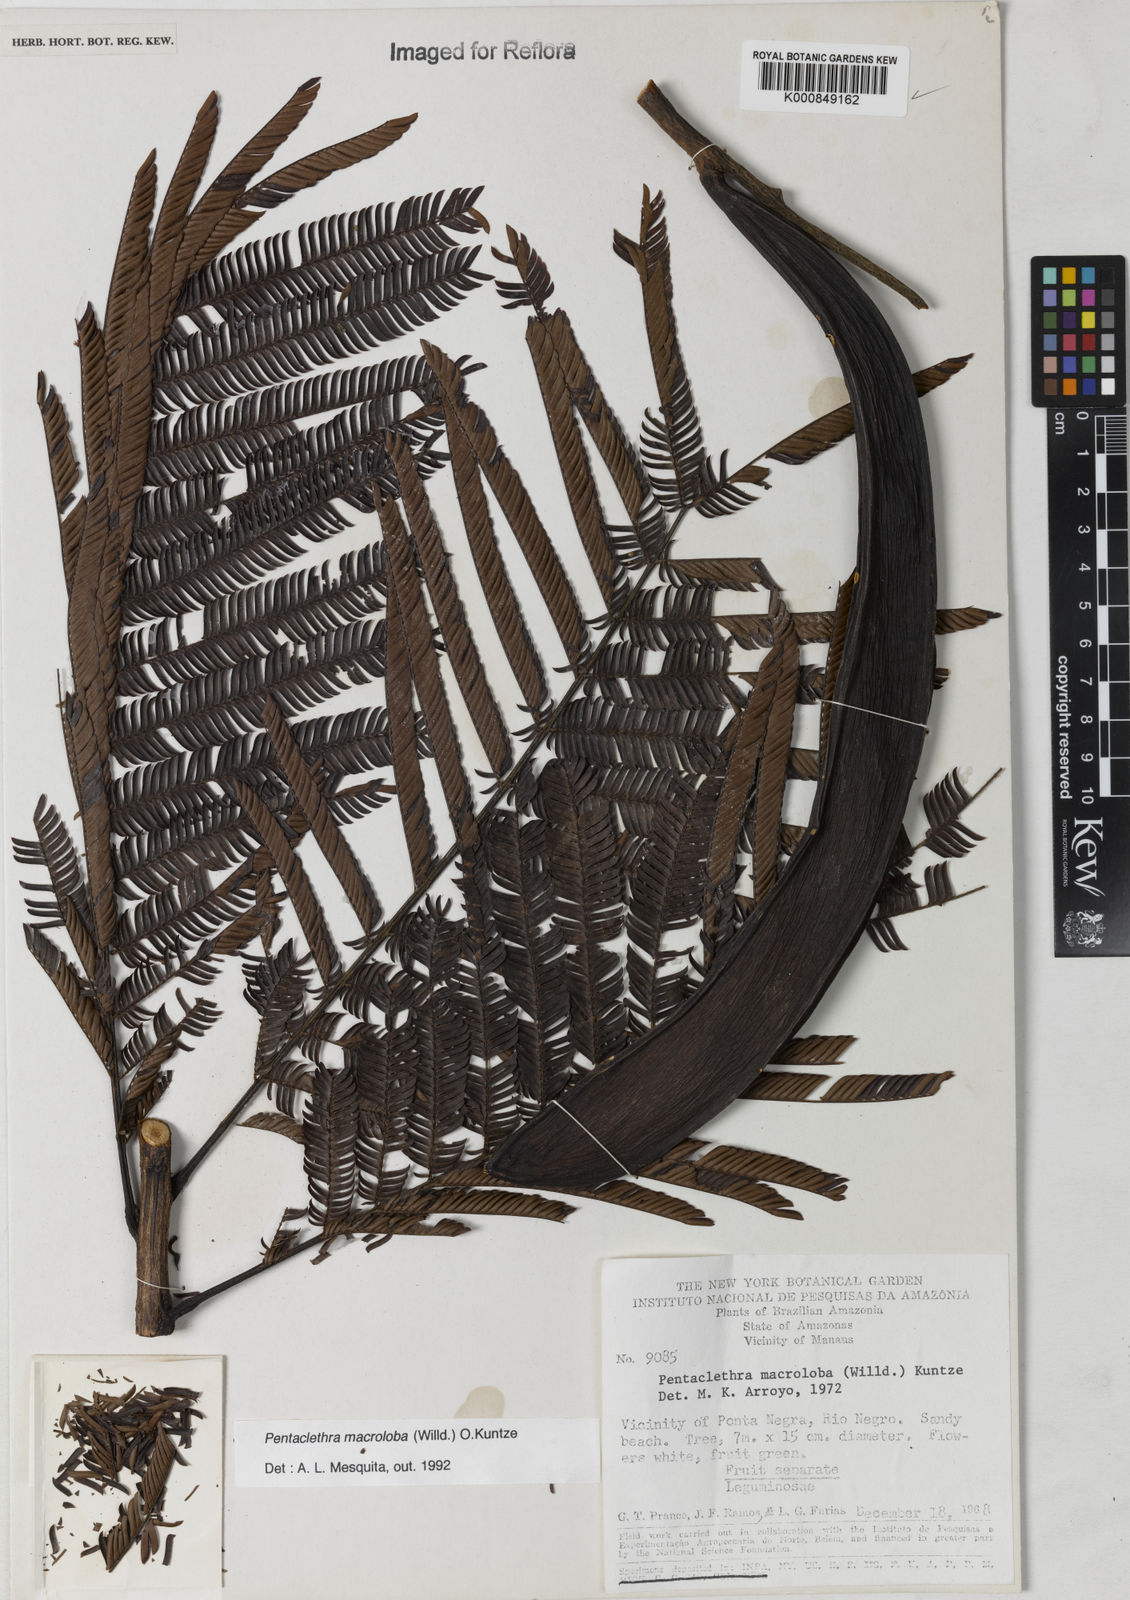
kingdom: Plantae
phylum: Tracheophyta
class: Magnoliopsida
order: Fabales
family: Fabaceae
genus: Pentaclethra
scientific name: Pentaclethra macroloba
